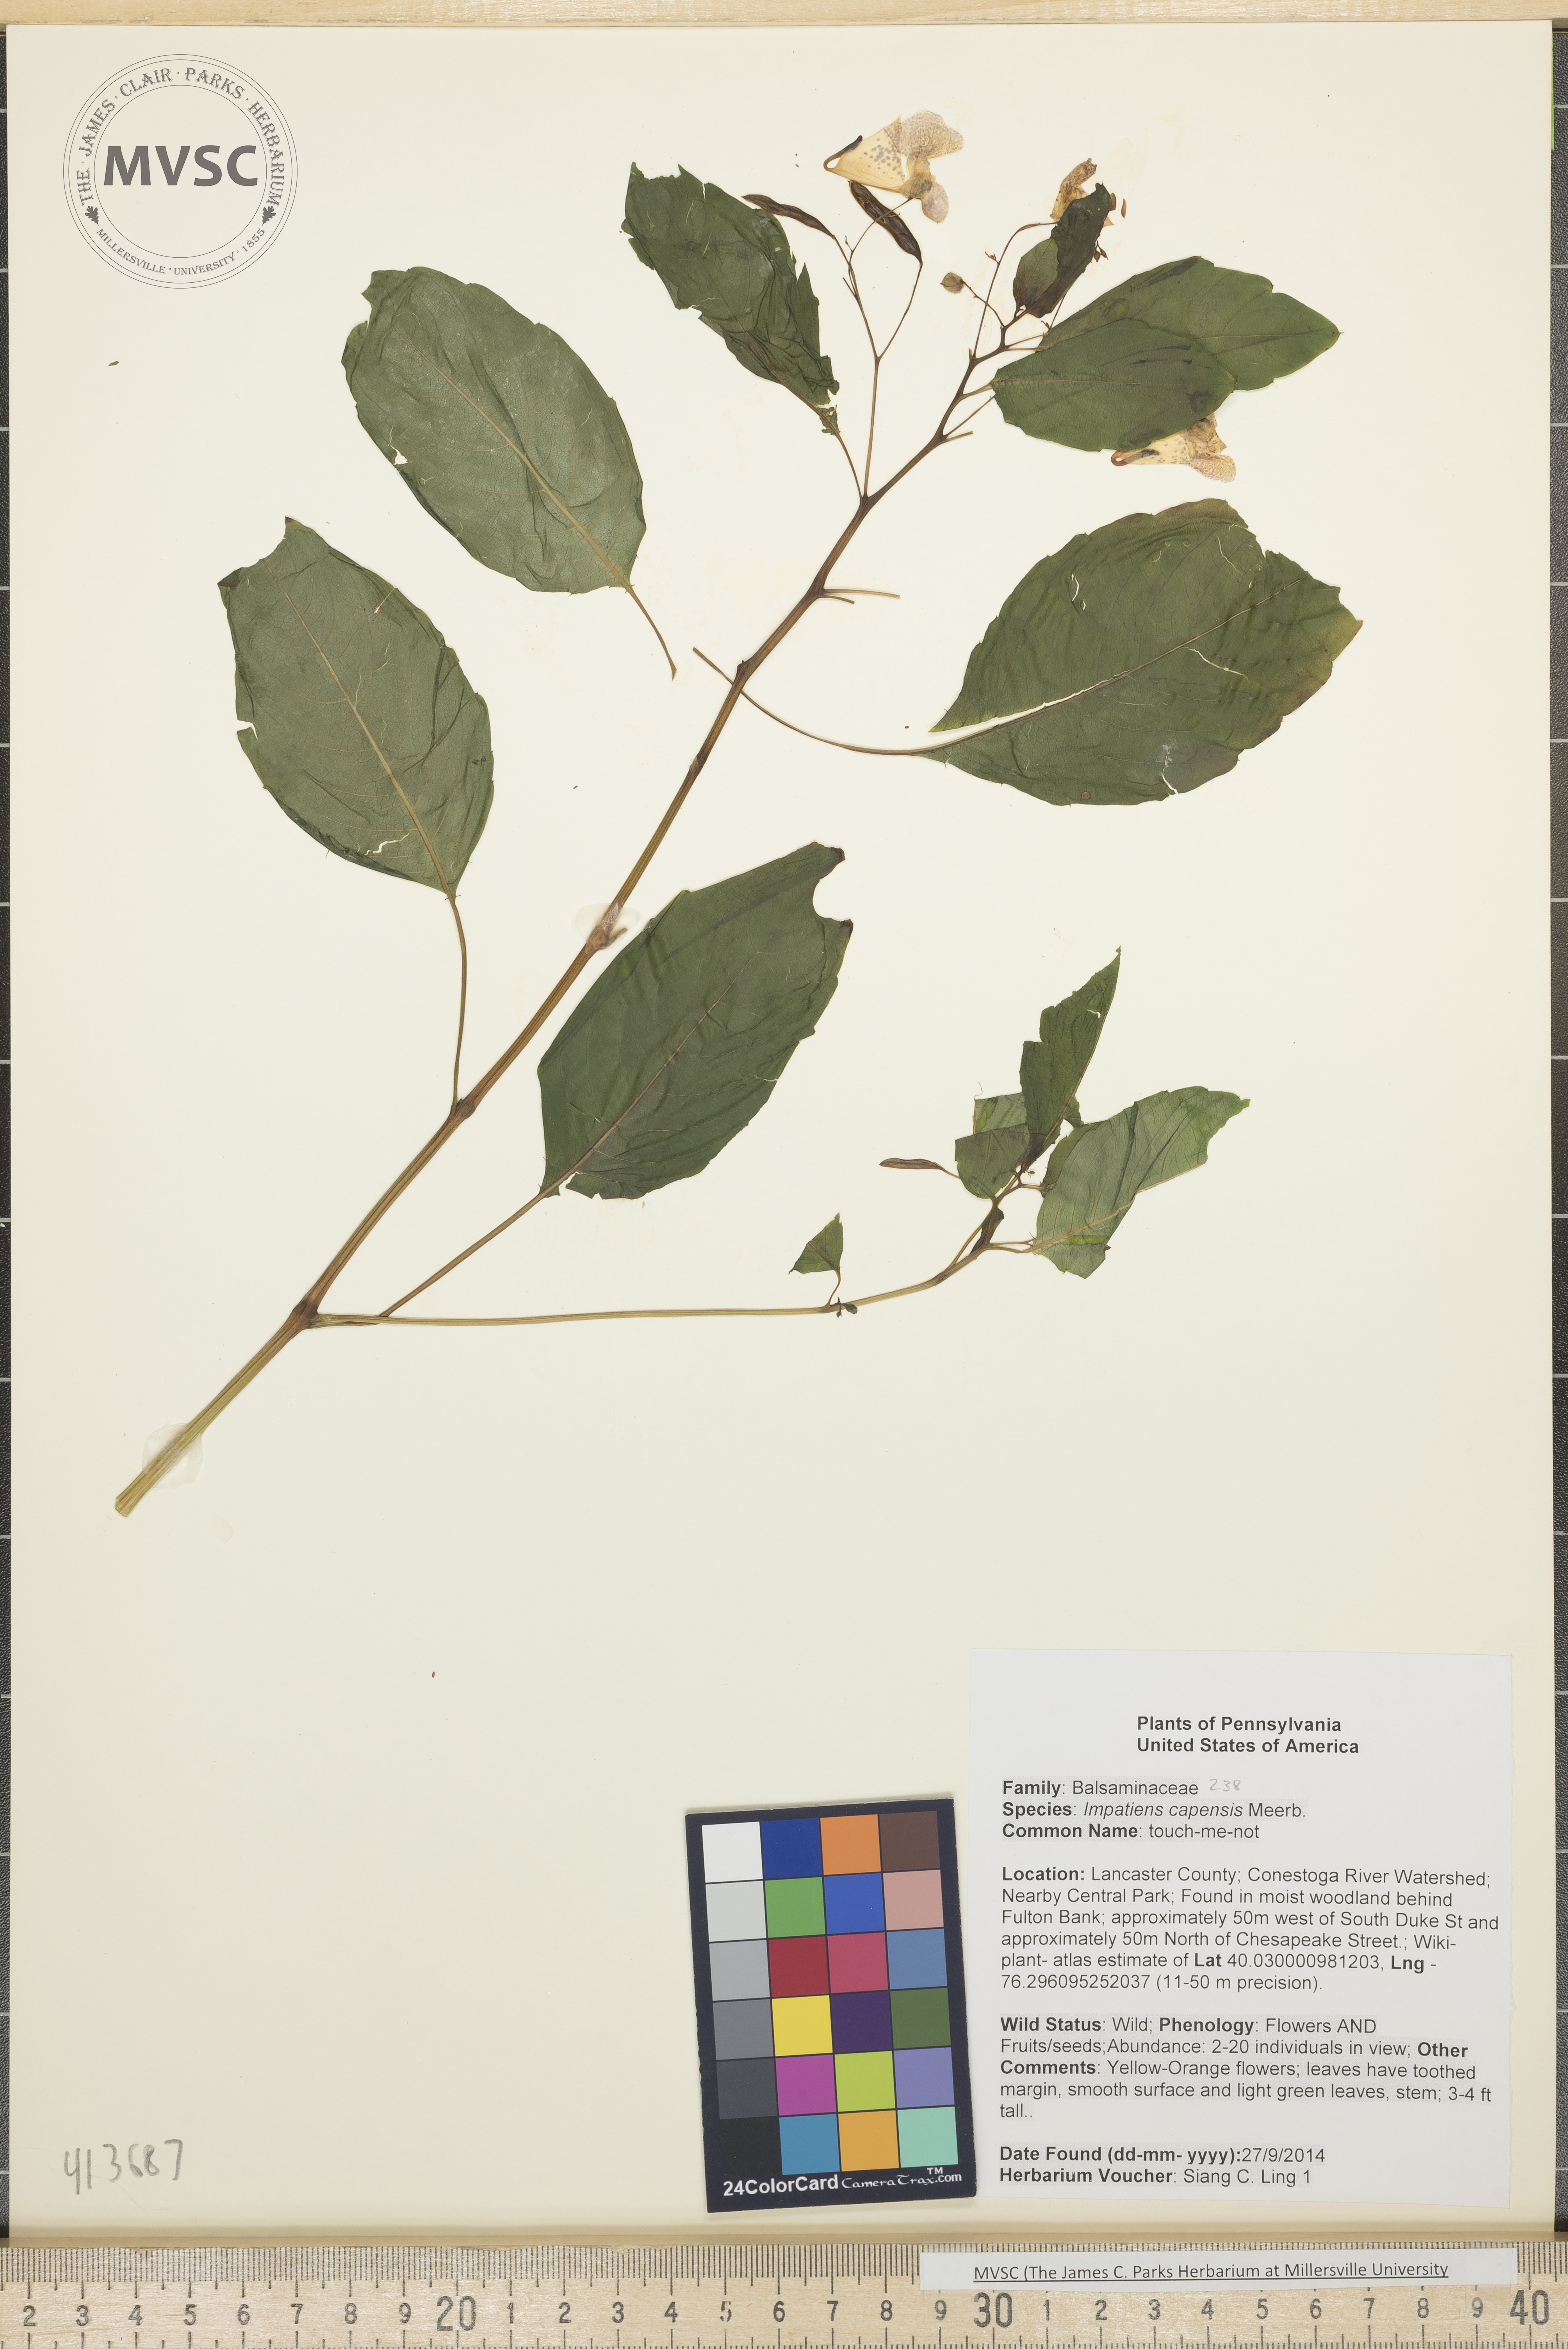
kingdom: Plantae
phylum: Tracheophyta
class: Magnoliopsida
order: Ericales
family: Balsaminaceae
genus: Impatiens
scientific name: Impatiens capensis
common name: touch-me-not
